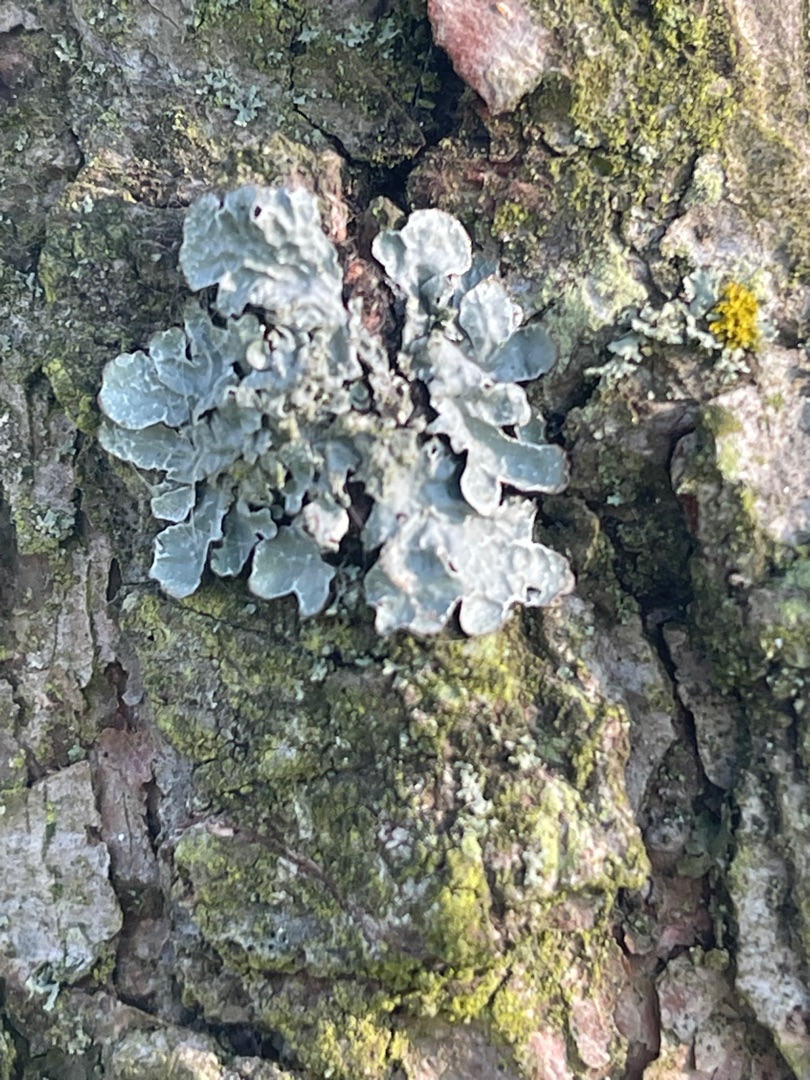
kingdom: Fungi
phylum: Ascomycota
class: Lecanoromycetes
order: Lecanorales
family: Parmeliaceae
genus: Parmelia
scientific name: Parmelia sulcata
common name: Rynket skållav
